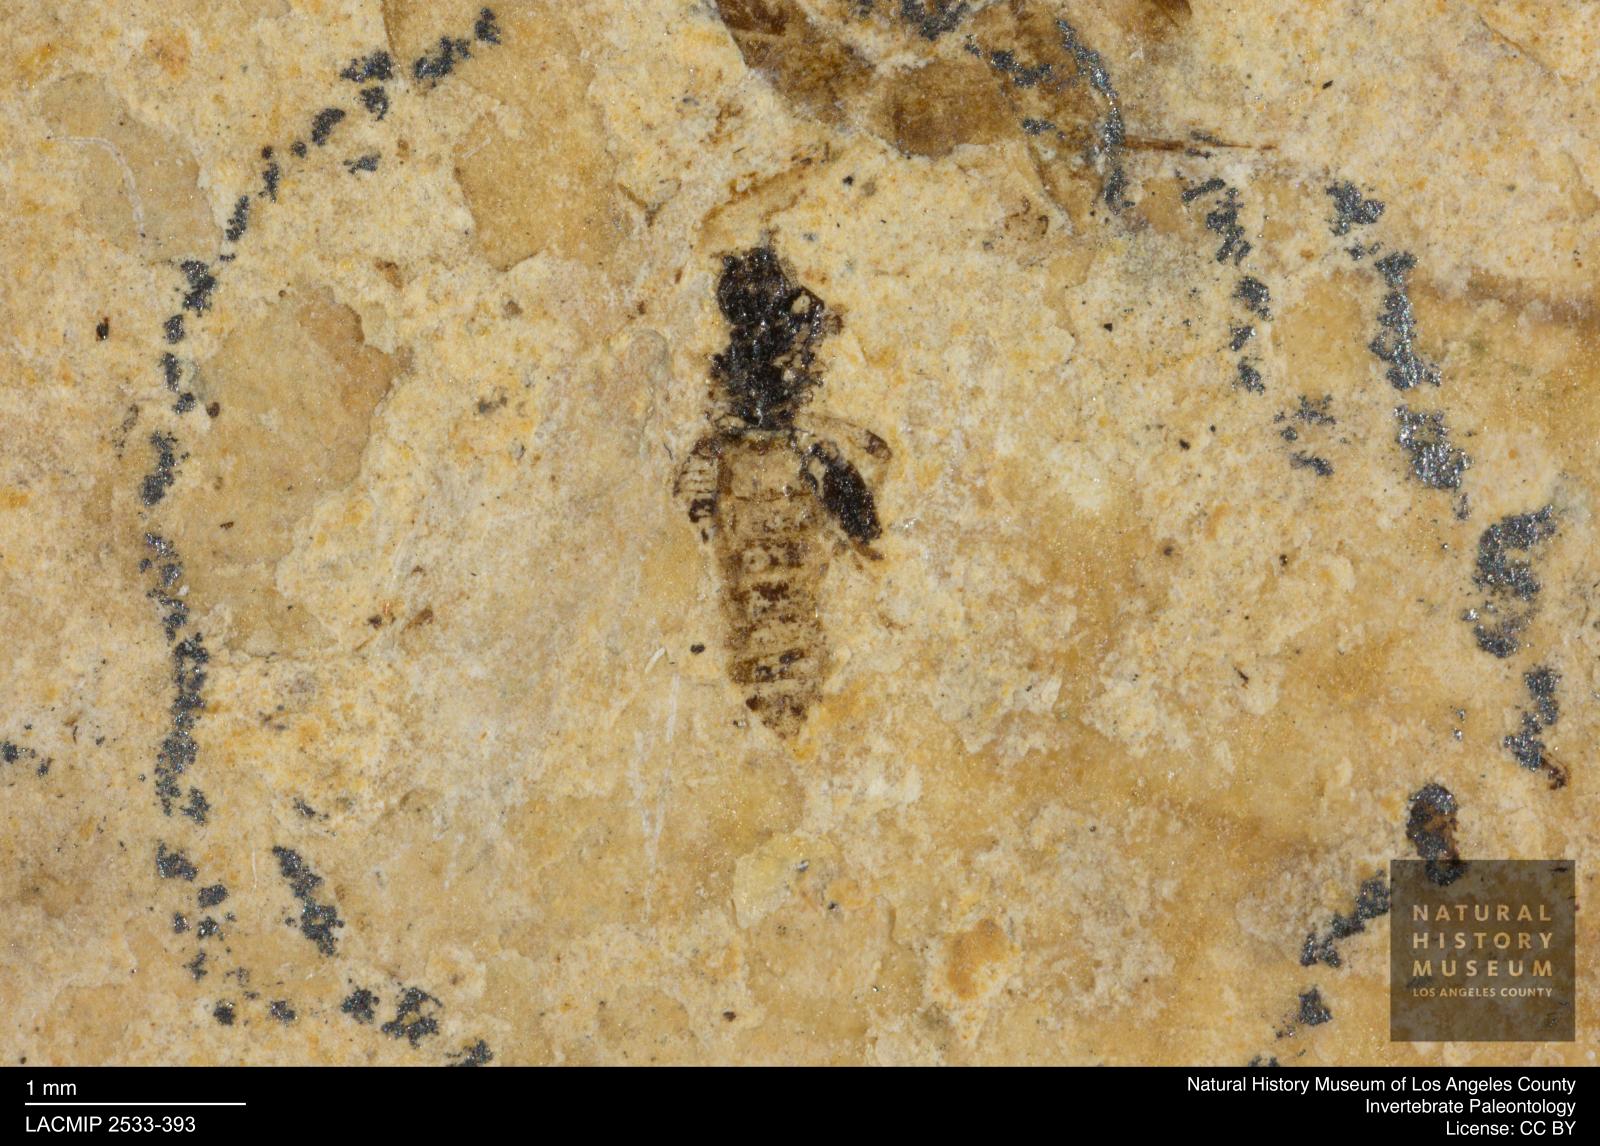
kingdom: Animalia
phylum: Arthropoda
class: Insecta
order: Diptera
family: Ceratopogonidae
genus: Serromyia
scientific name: Serromyia
